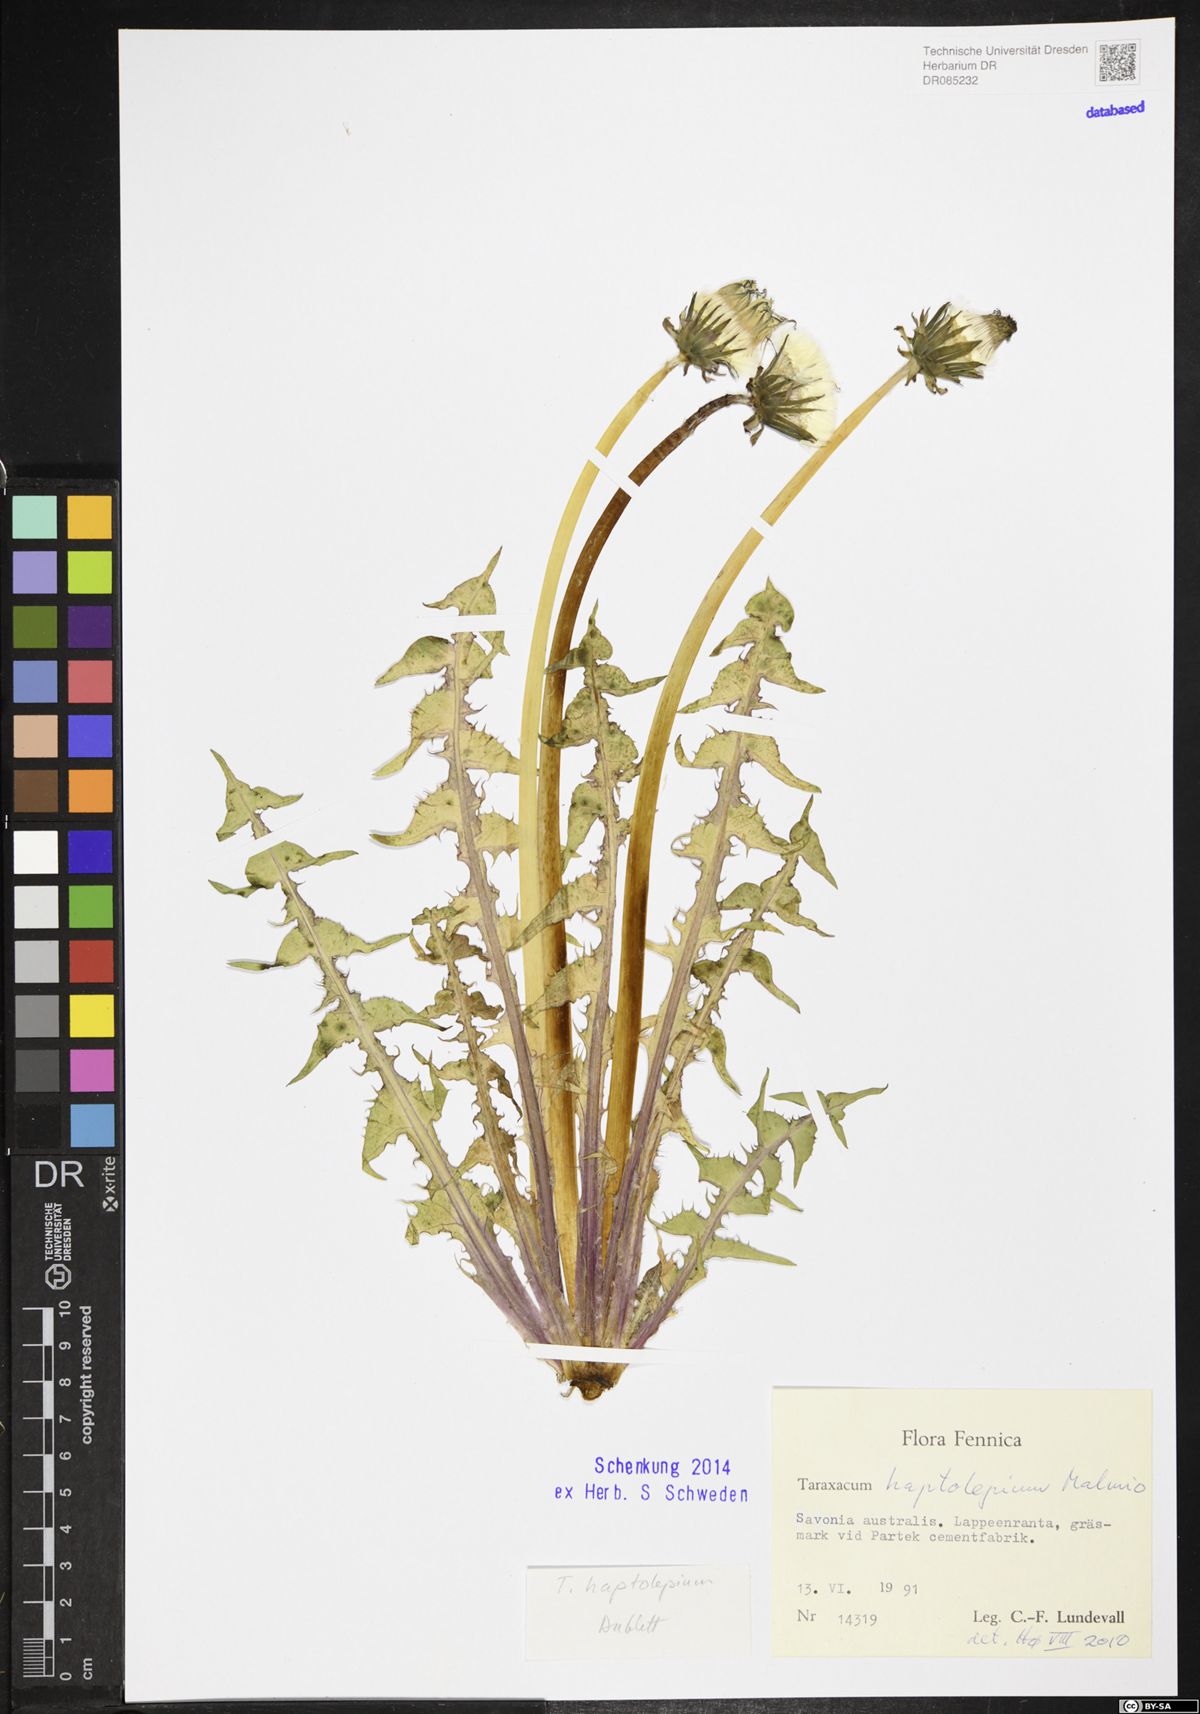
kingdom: Plantae
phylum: Tracheophyta
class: Magnoliopsida
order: Asterales
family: Asteraceae
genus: Taraxacum
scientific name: Taraxacum haptolepium
